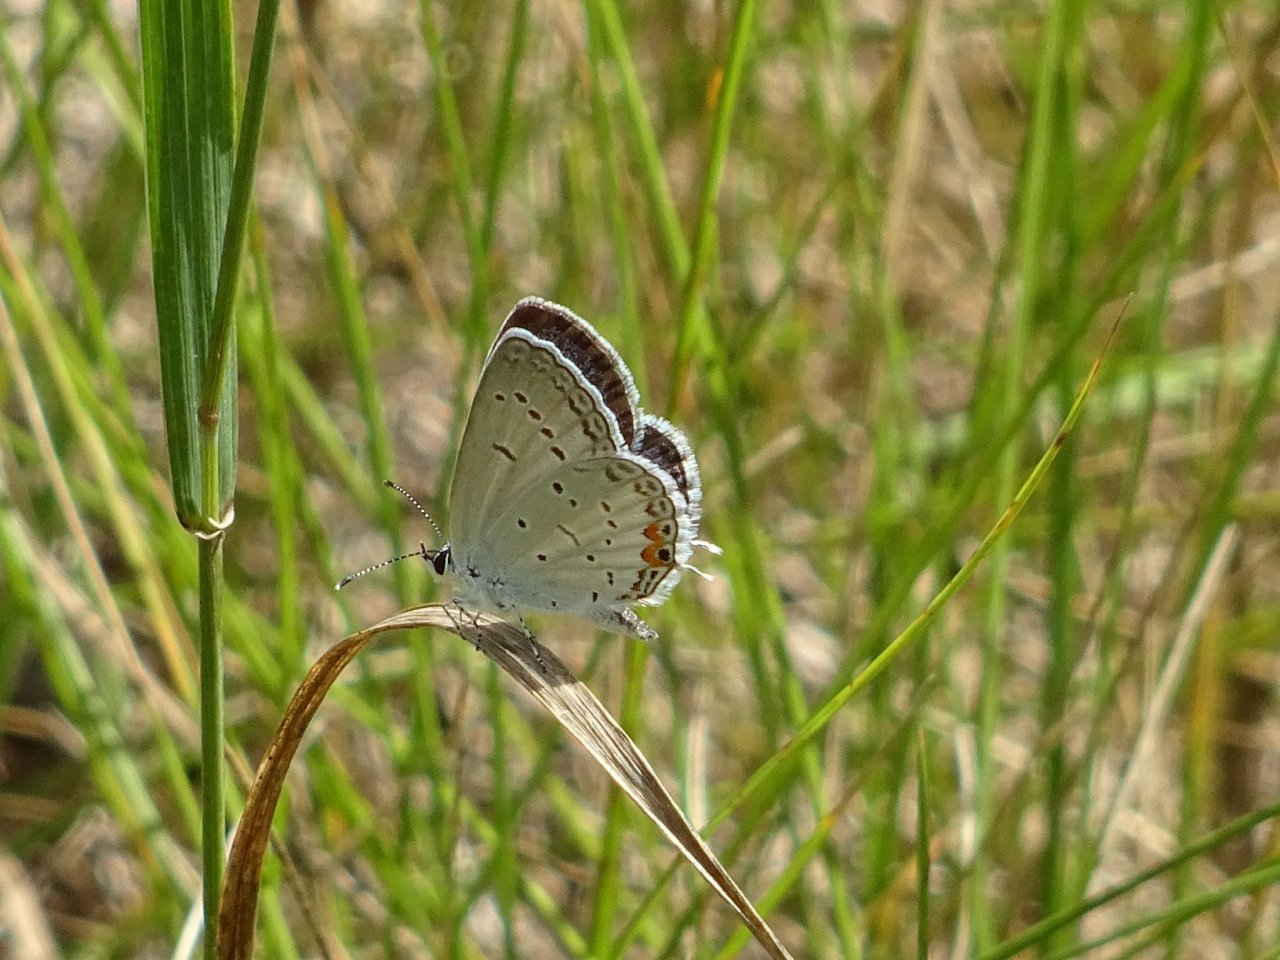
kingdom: Animalia
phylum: Arthropoda
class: Insecta
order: Lepidoptera
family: Lycaenidae
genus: Elkalyce
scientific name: Elkalyce comyntas
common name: Eastern Tailed-Blue
